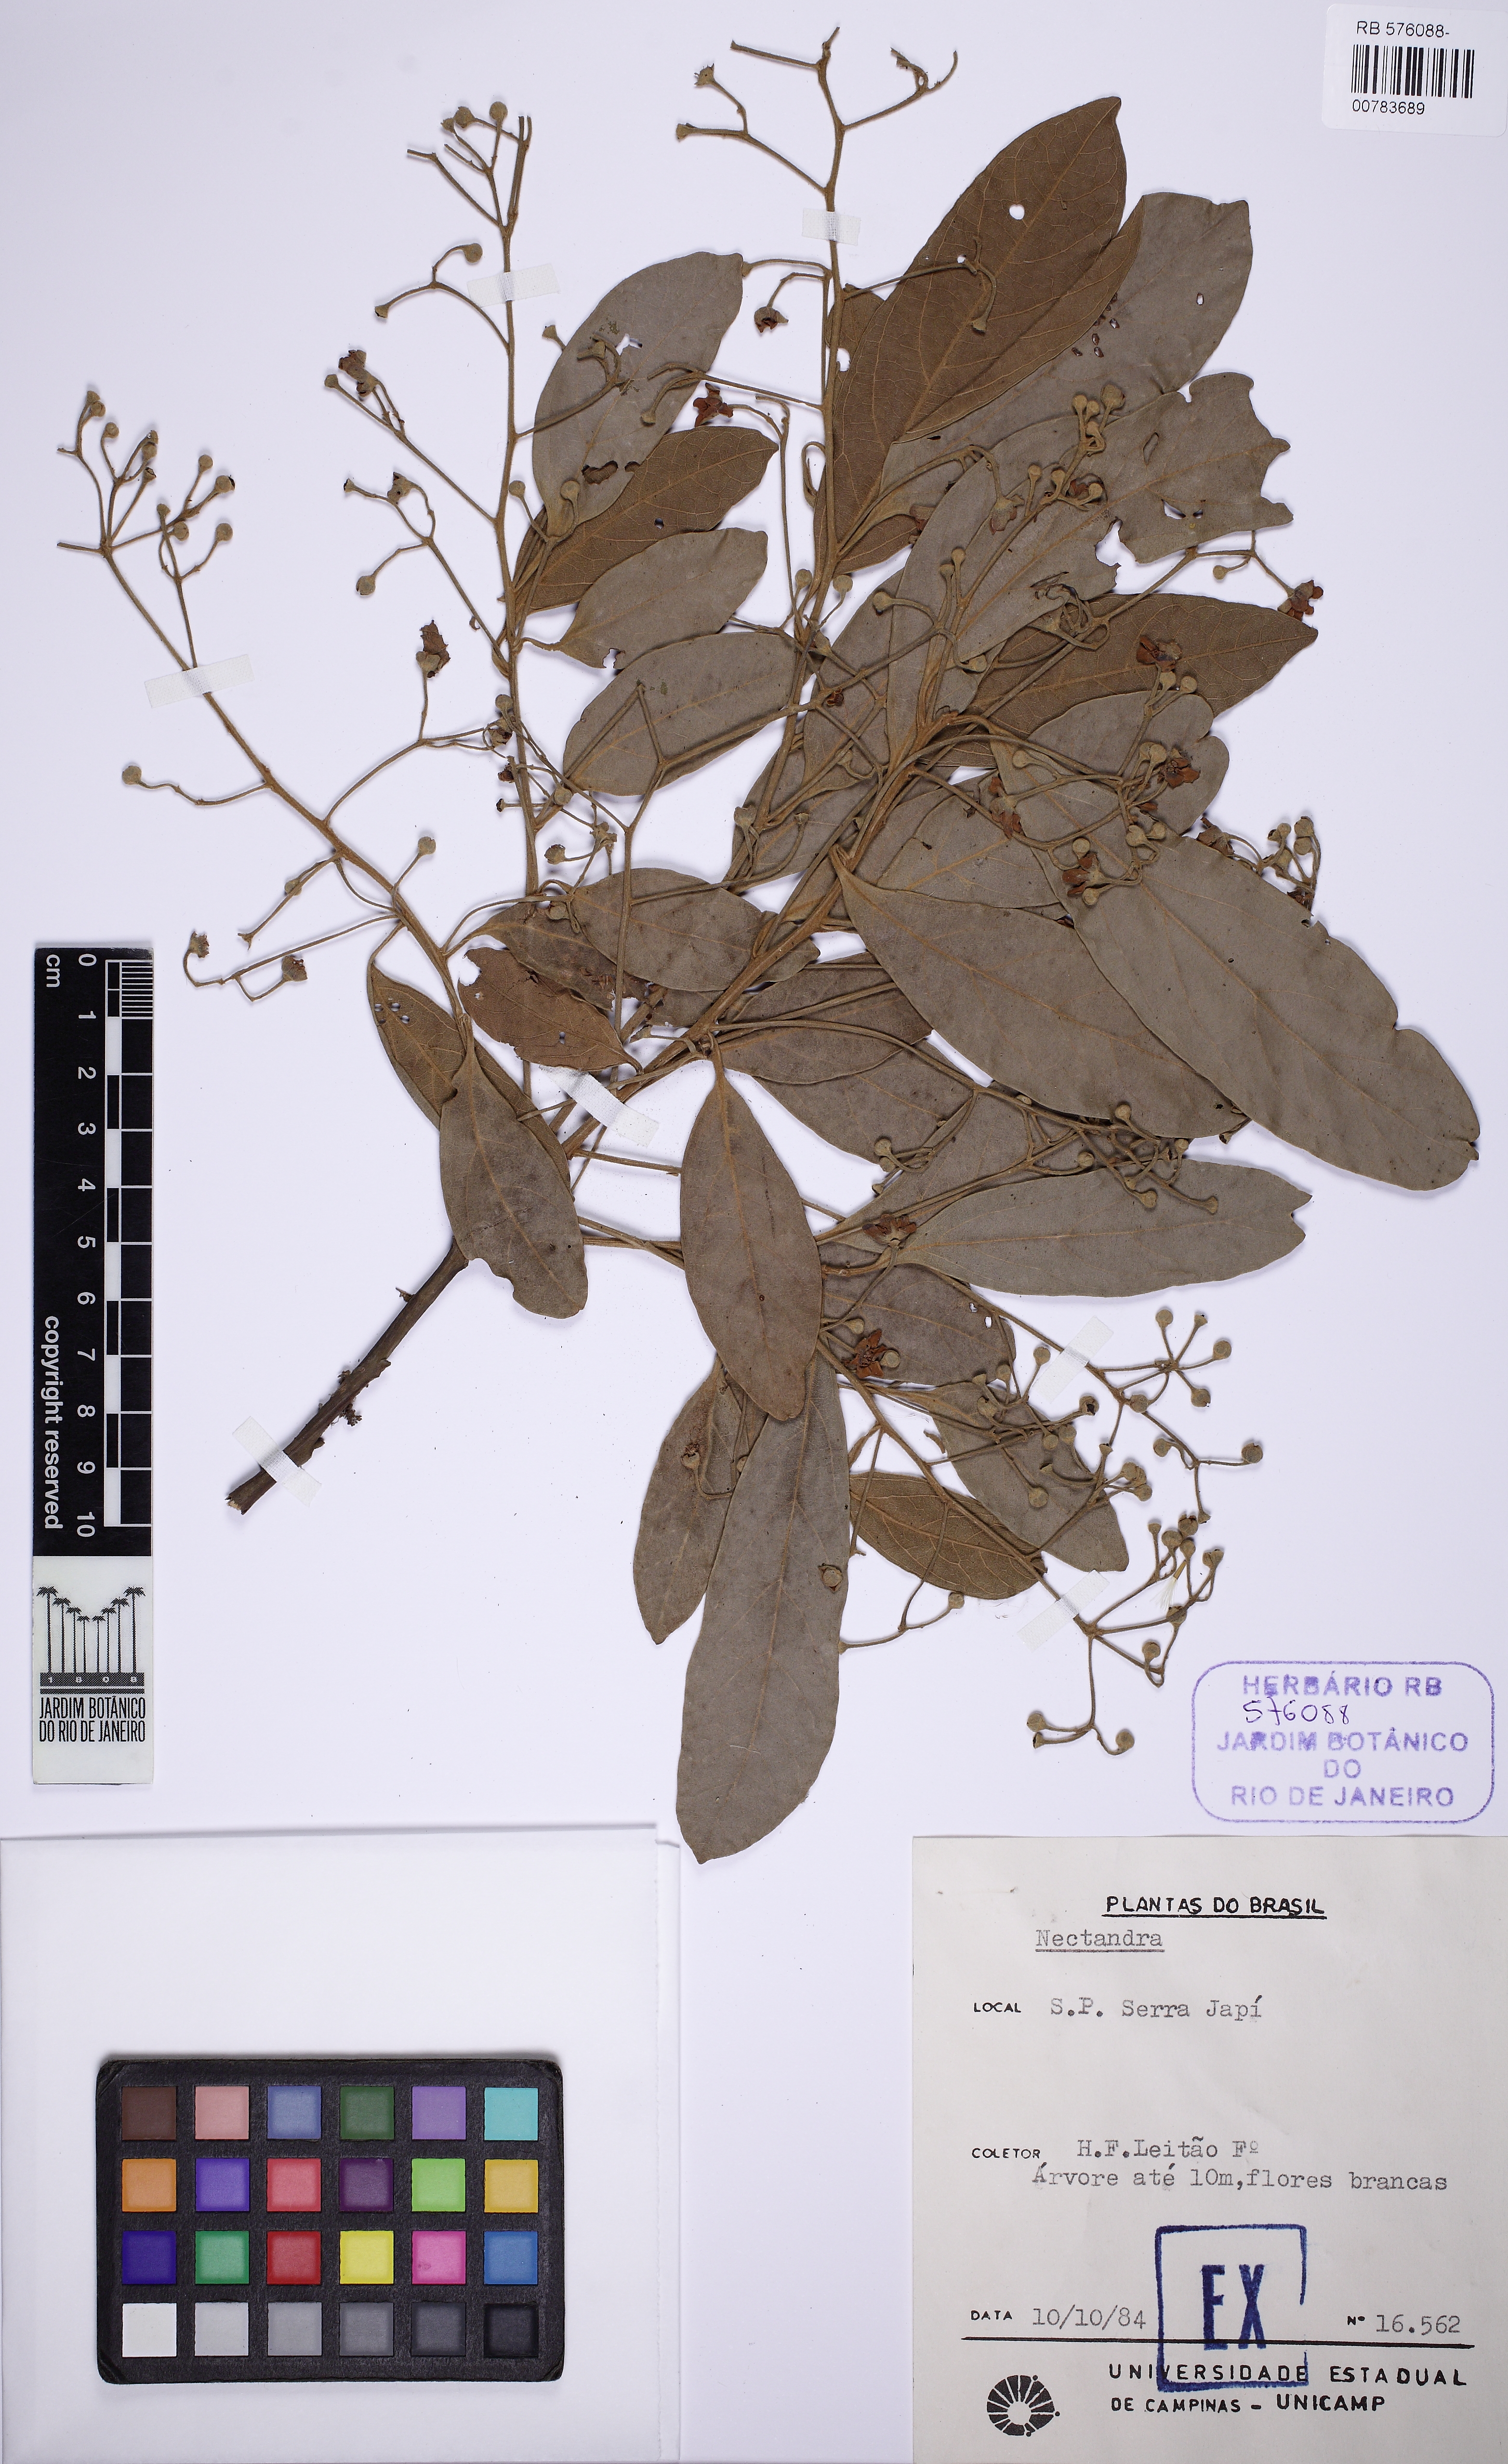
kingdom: Plantae
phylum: Tracheophyta
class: Magnoliopsida
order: Laurales
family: Lauraceae
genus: Nectandra
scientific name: Nectandra
